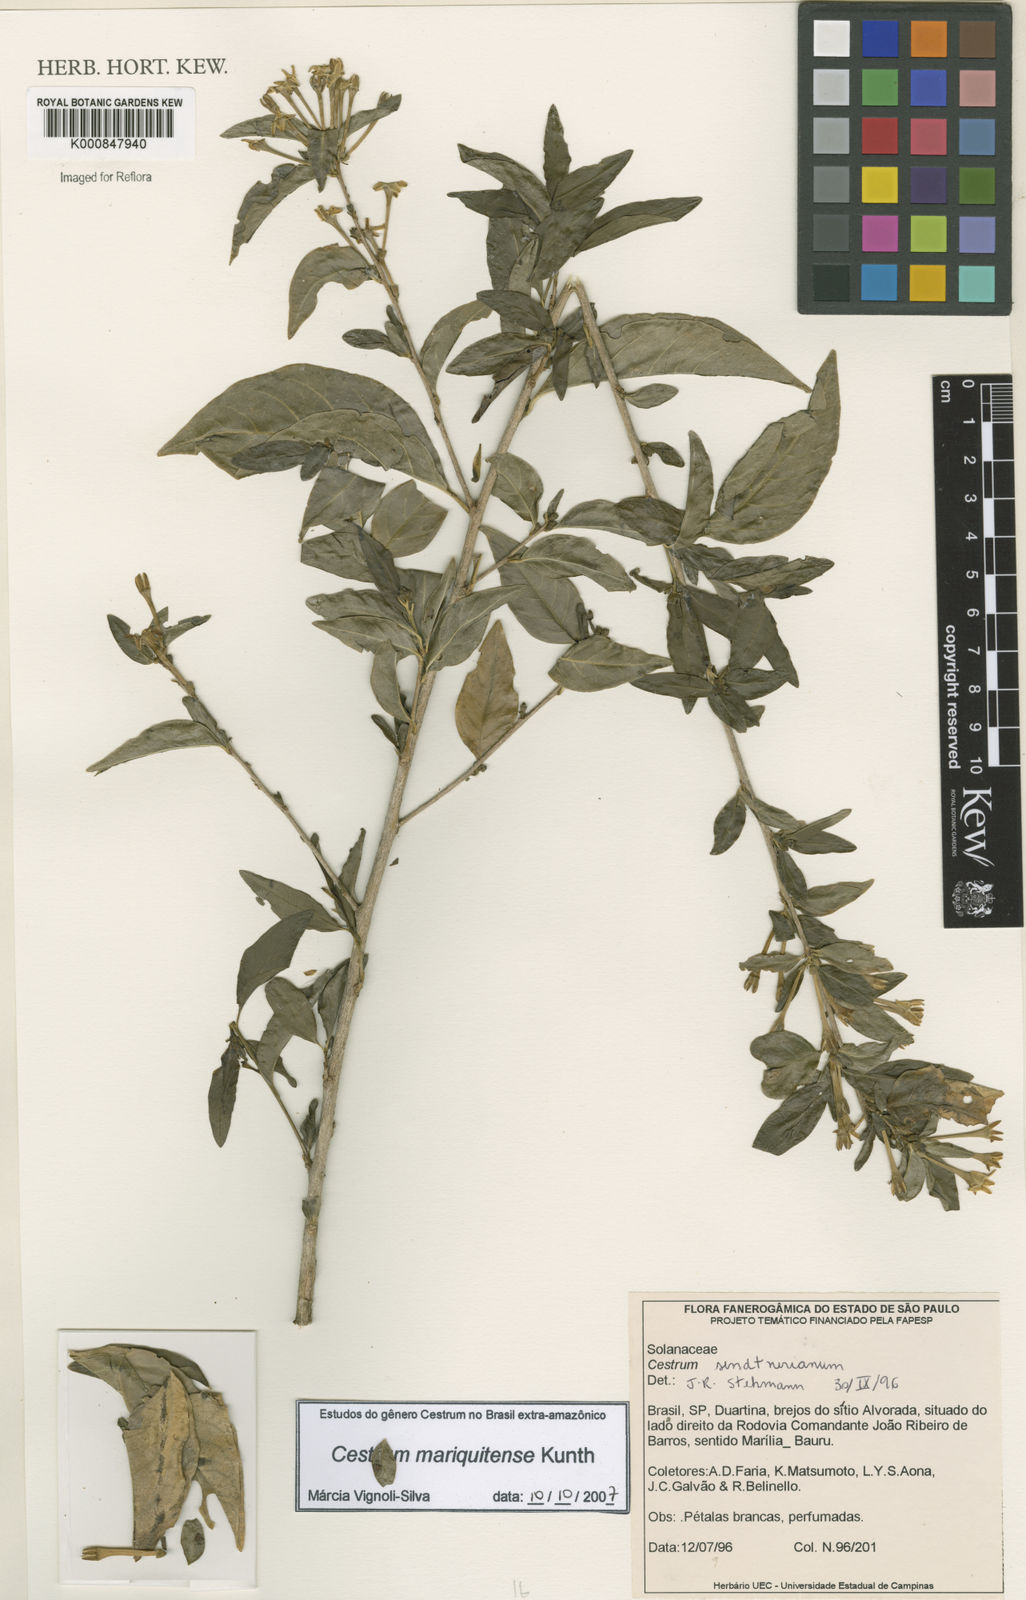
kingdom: Plantae
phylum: Tracheophyta
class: Magnoliopsida
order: Solanales
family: Solanaceae
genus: Cestrum
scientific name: Cestrum mariquitense
